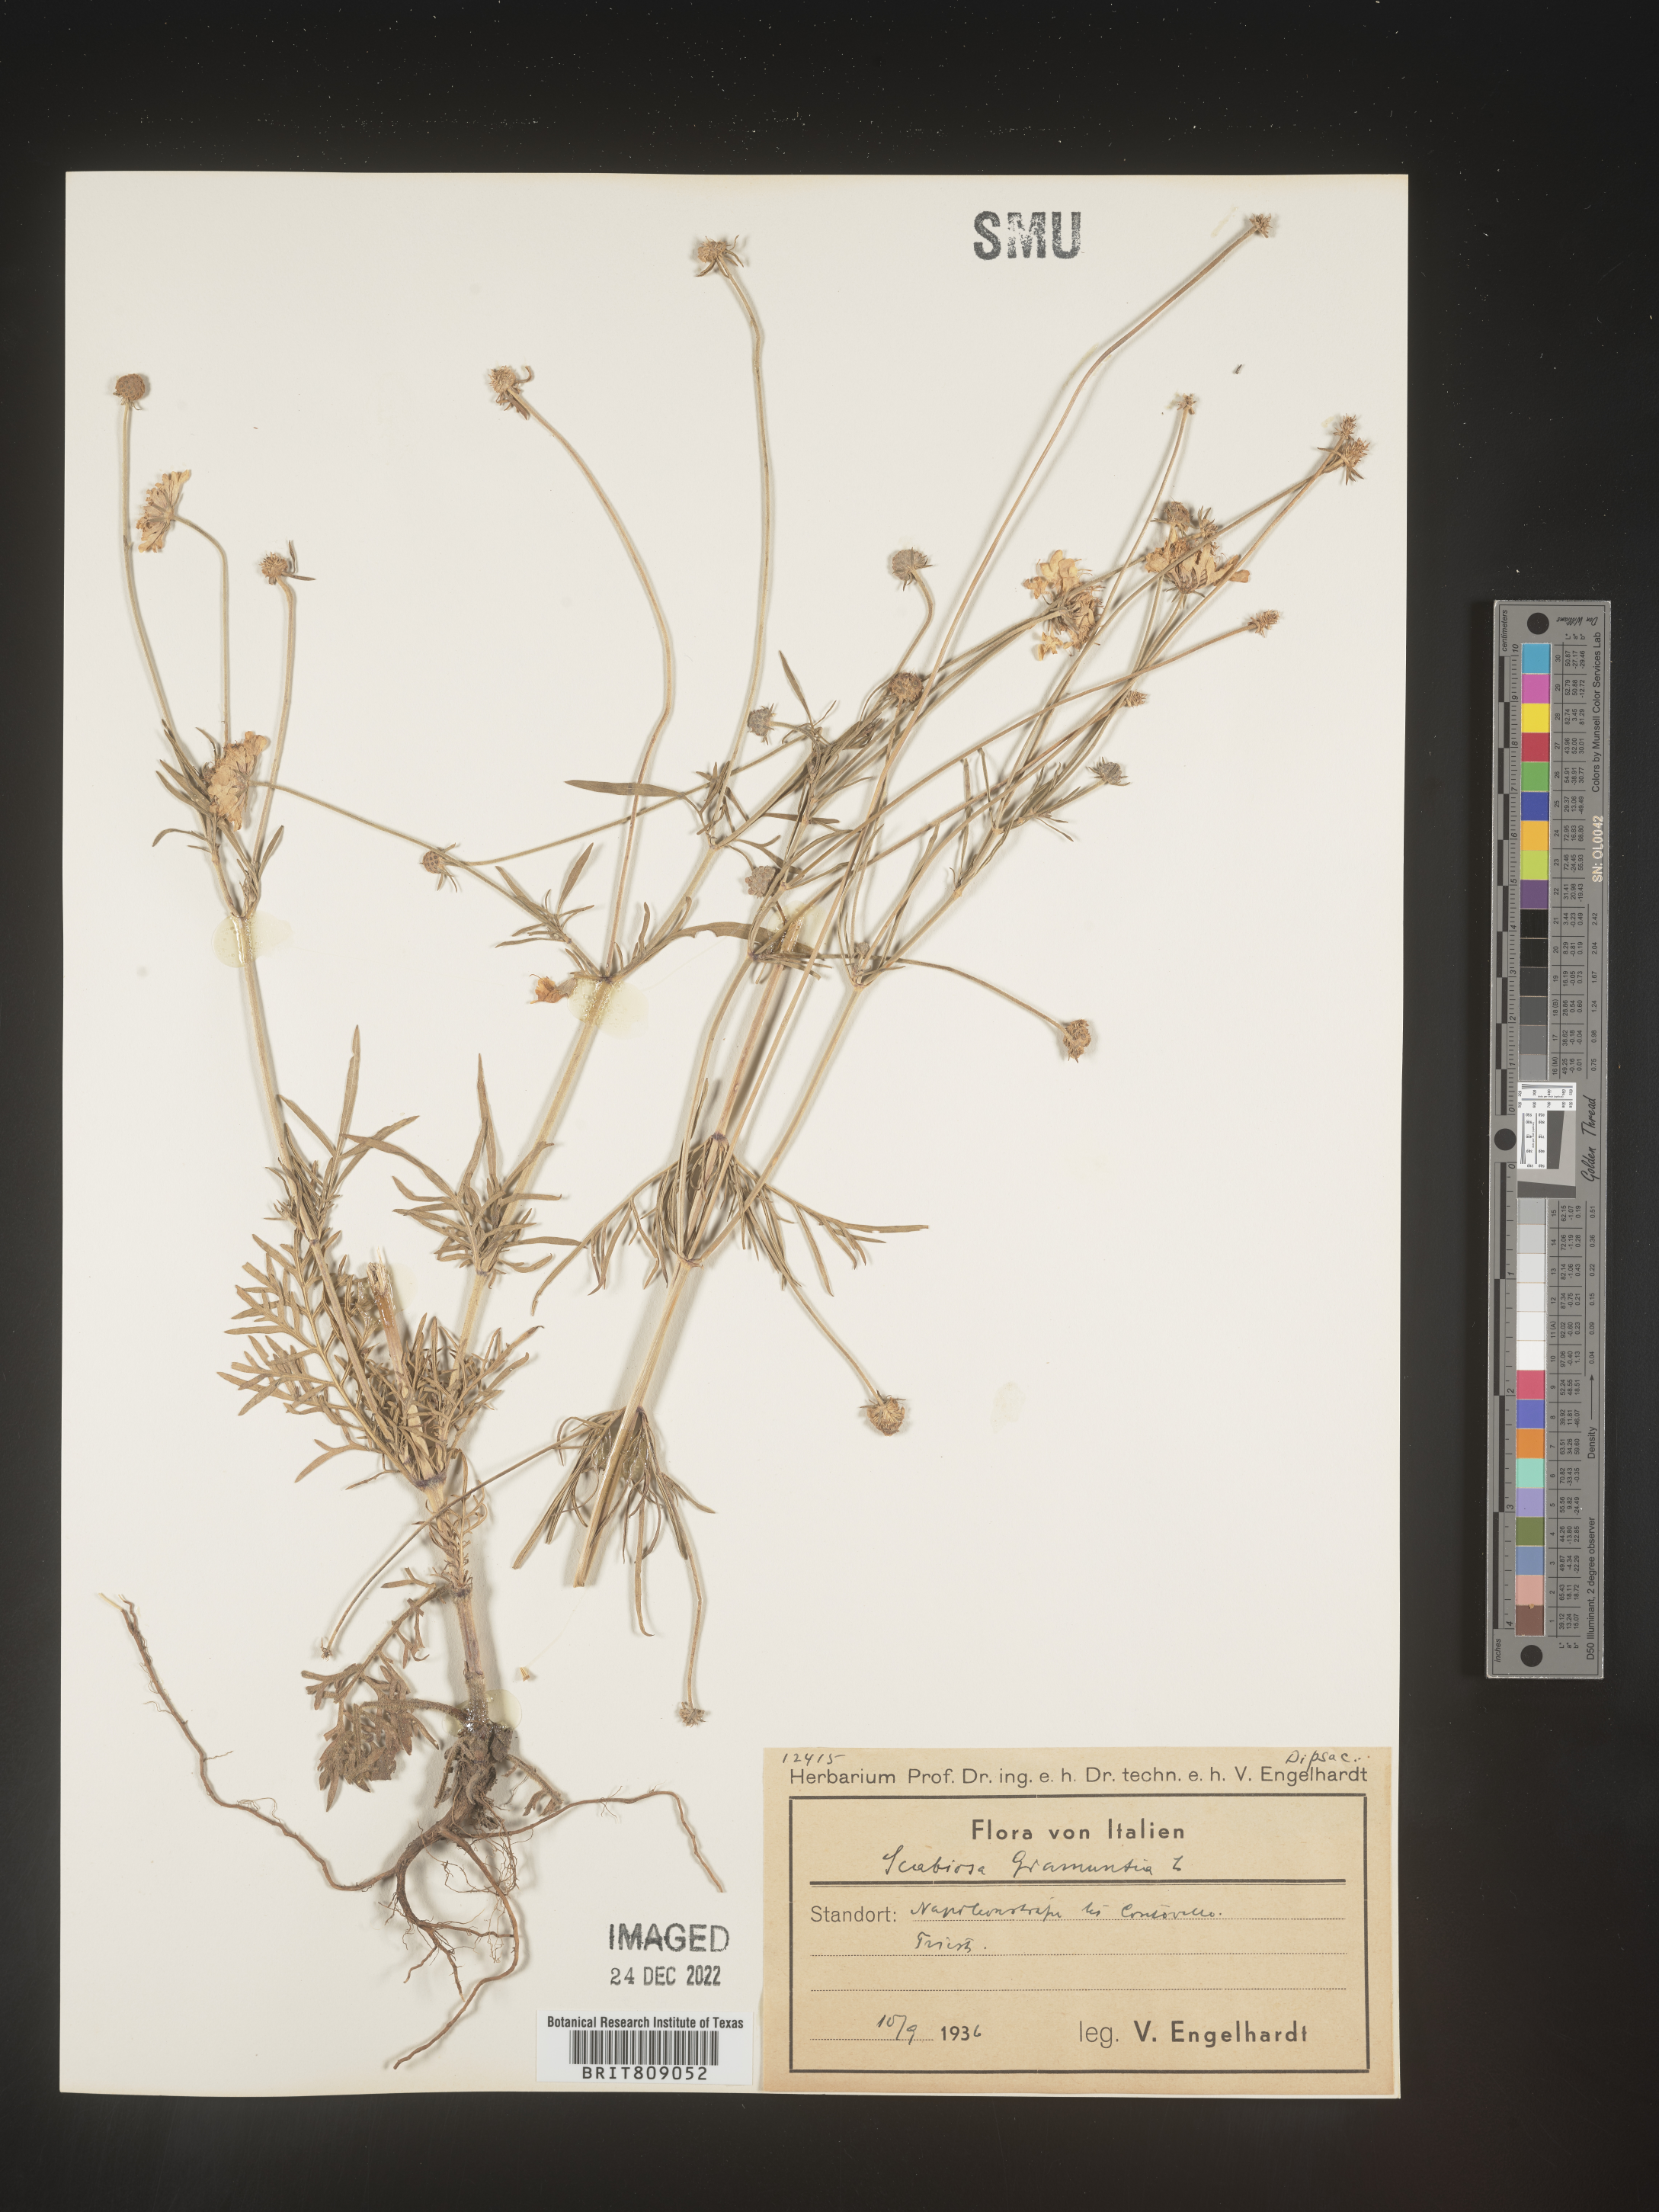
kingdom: Plantae
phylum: Tracheophyta
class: Magnoliopsida
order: Dipsacales
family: Caprifoliaceae
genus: Scabiosa
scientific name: Scabiosa
